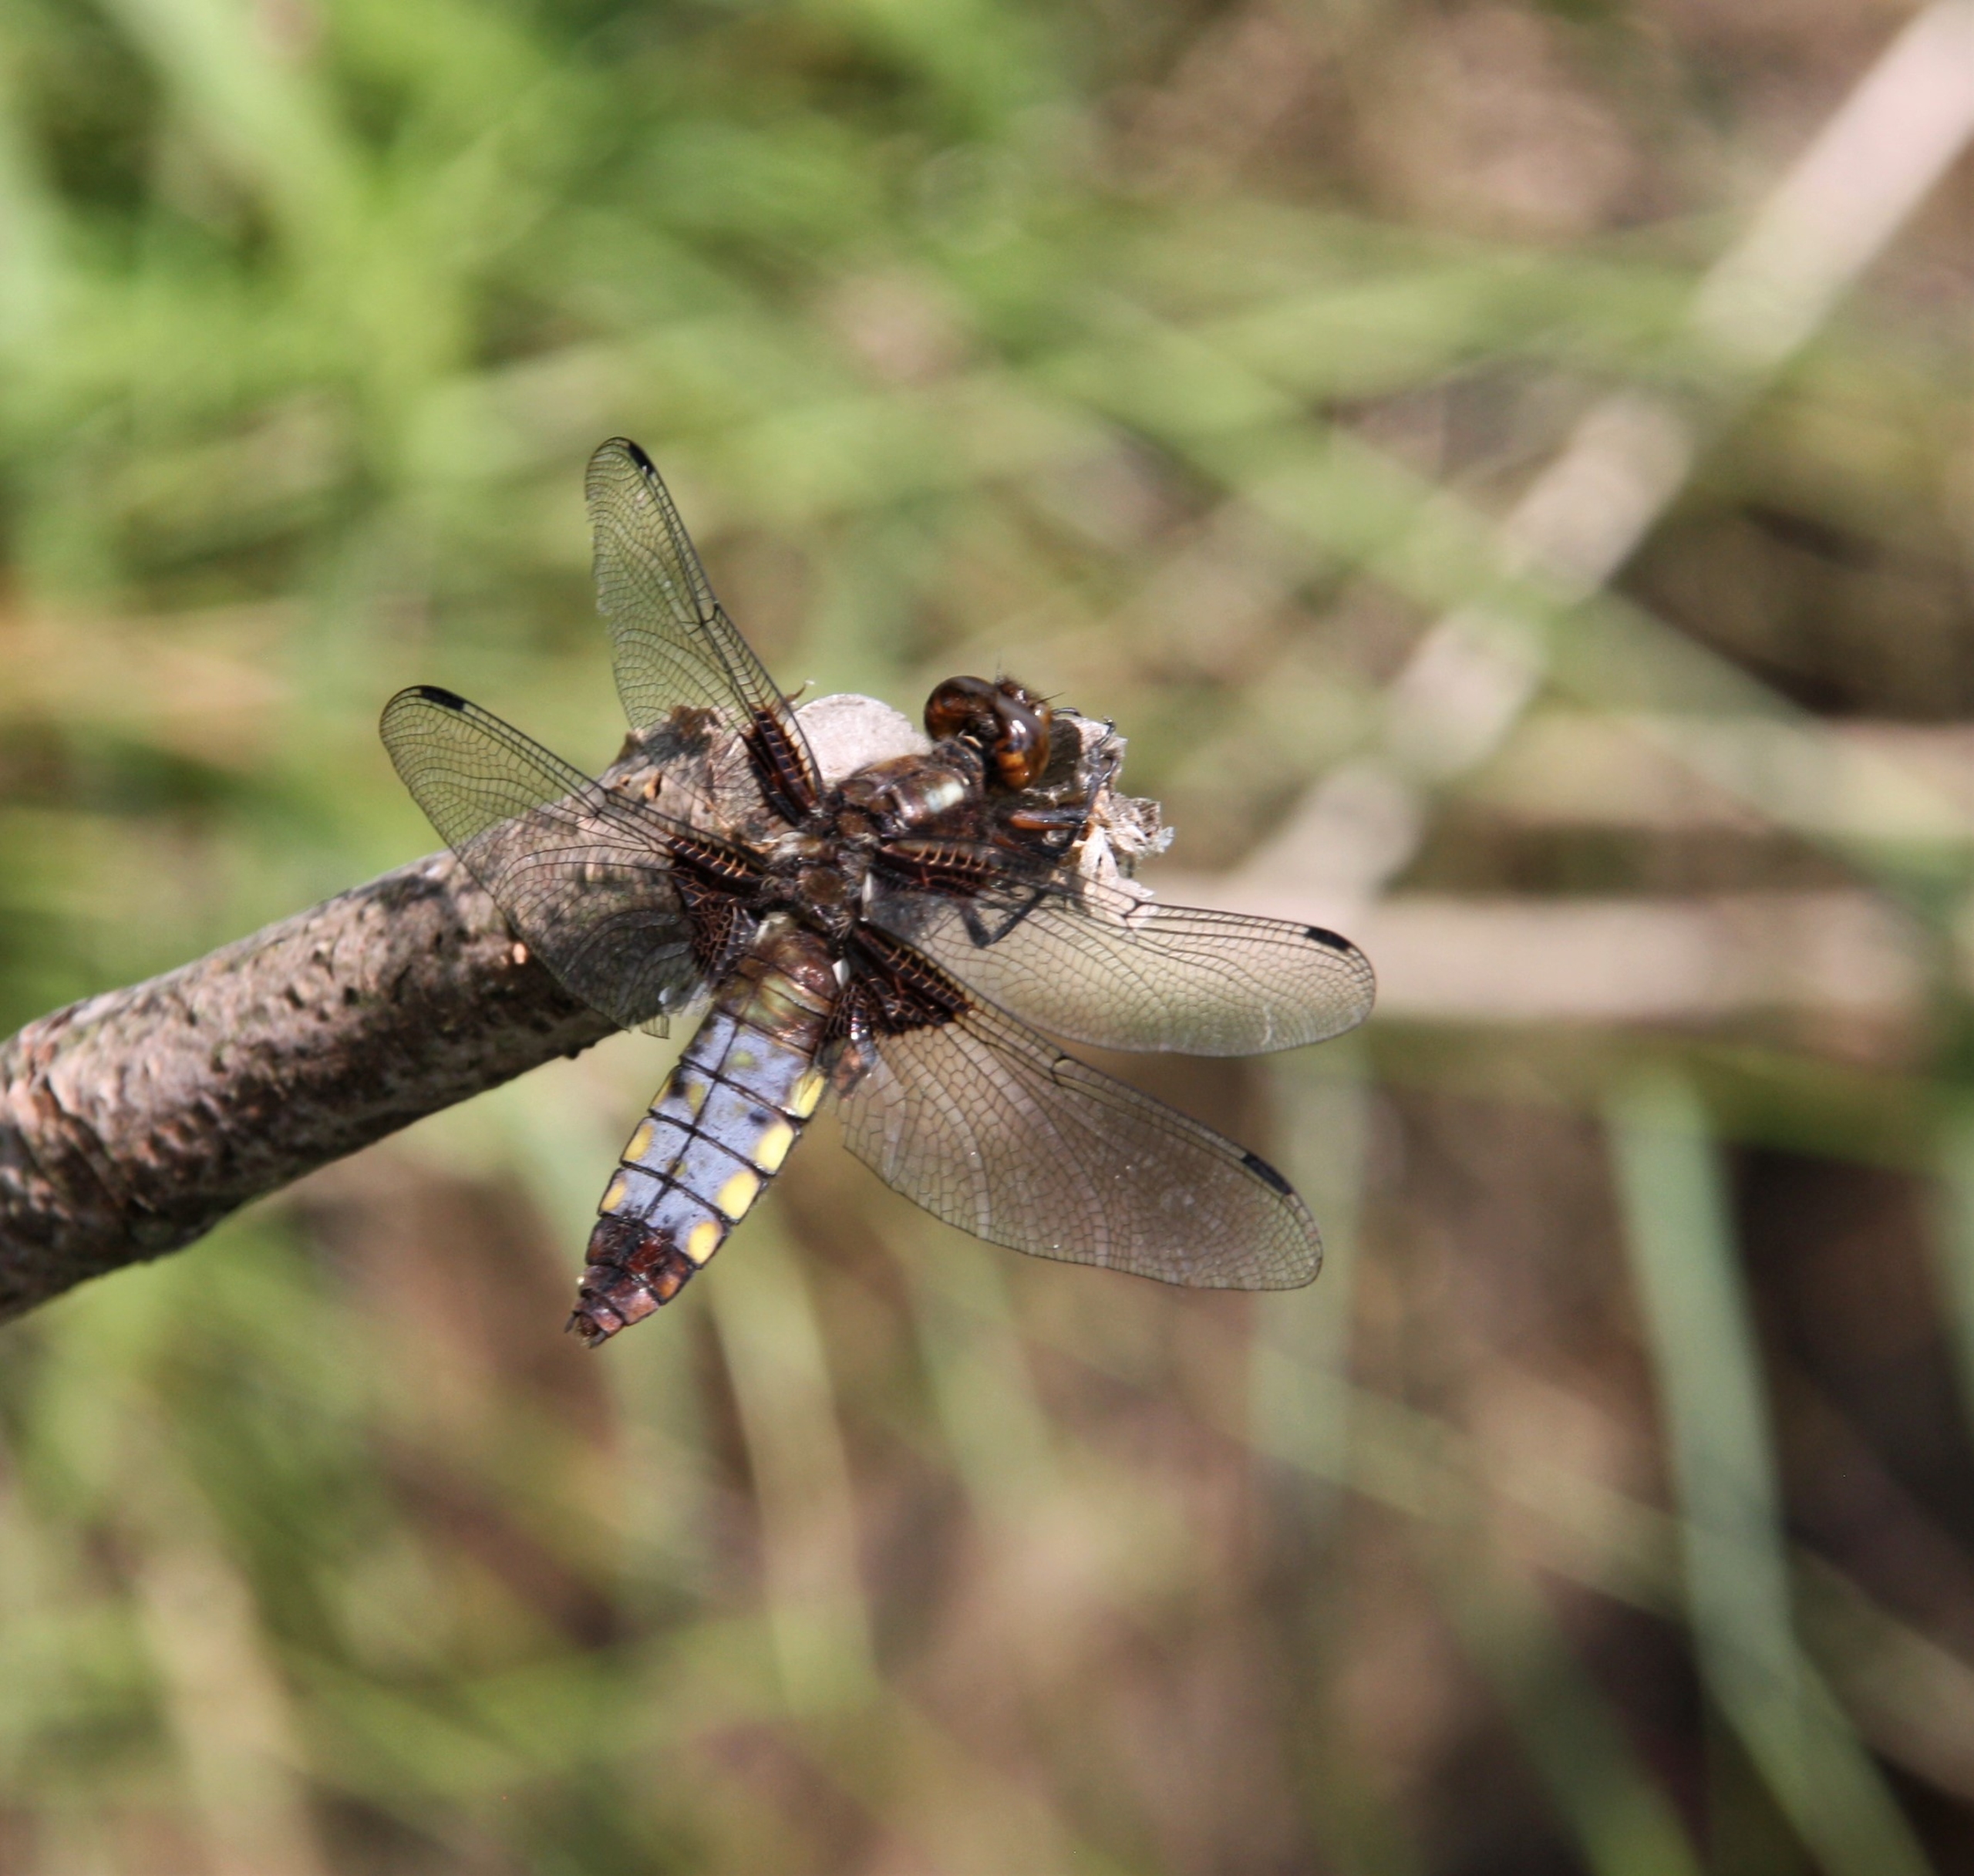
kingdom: Animalia
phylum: Arthropoda
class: Insecta
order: Odonata
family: Libellulidae
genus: Libellula
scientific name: Libellula depressa
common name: Blå libel
